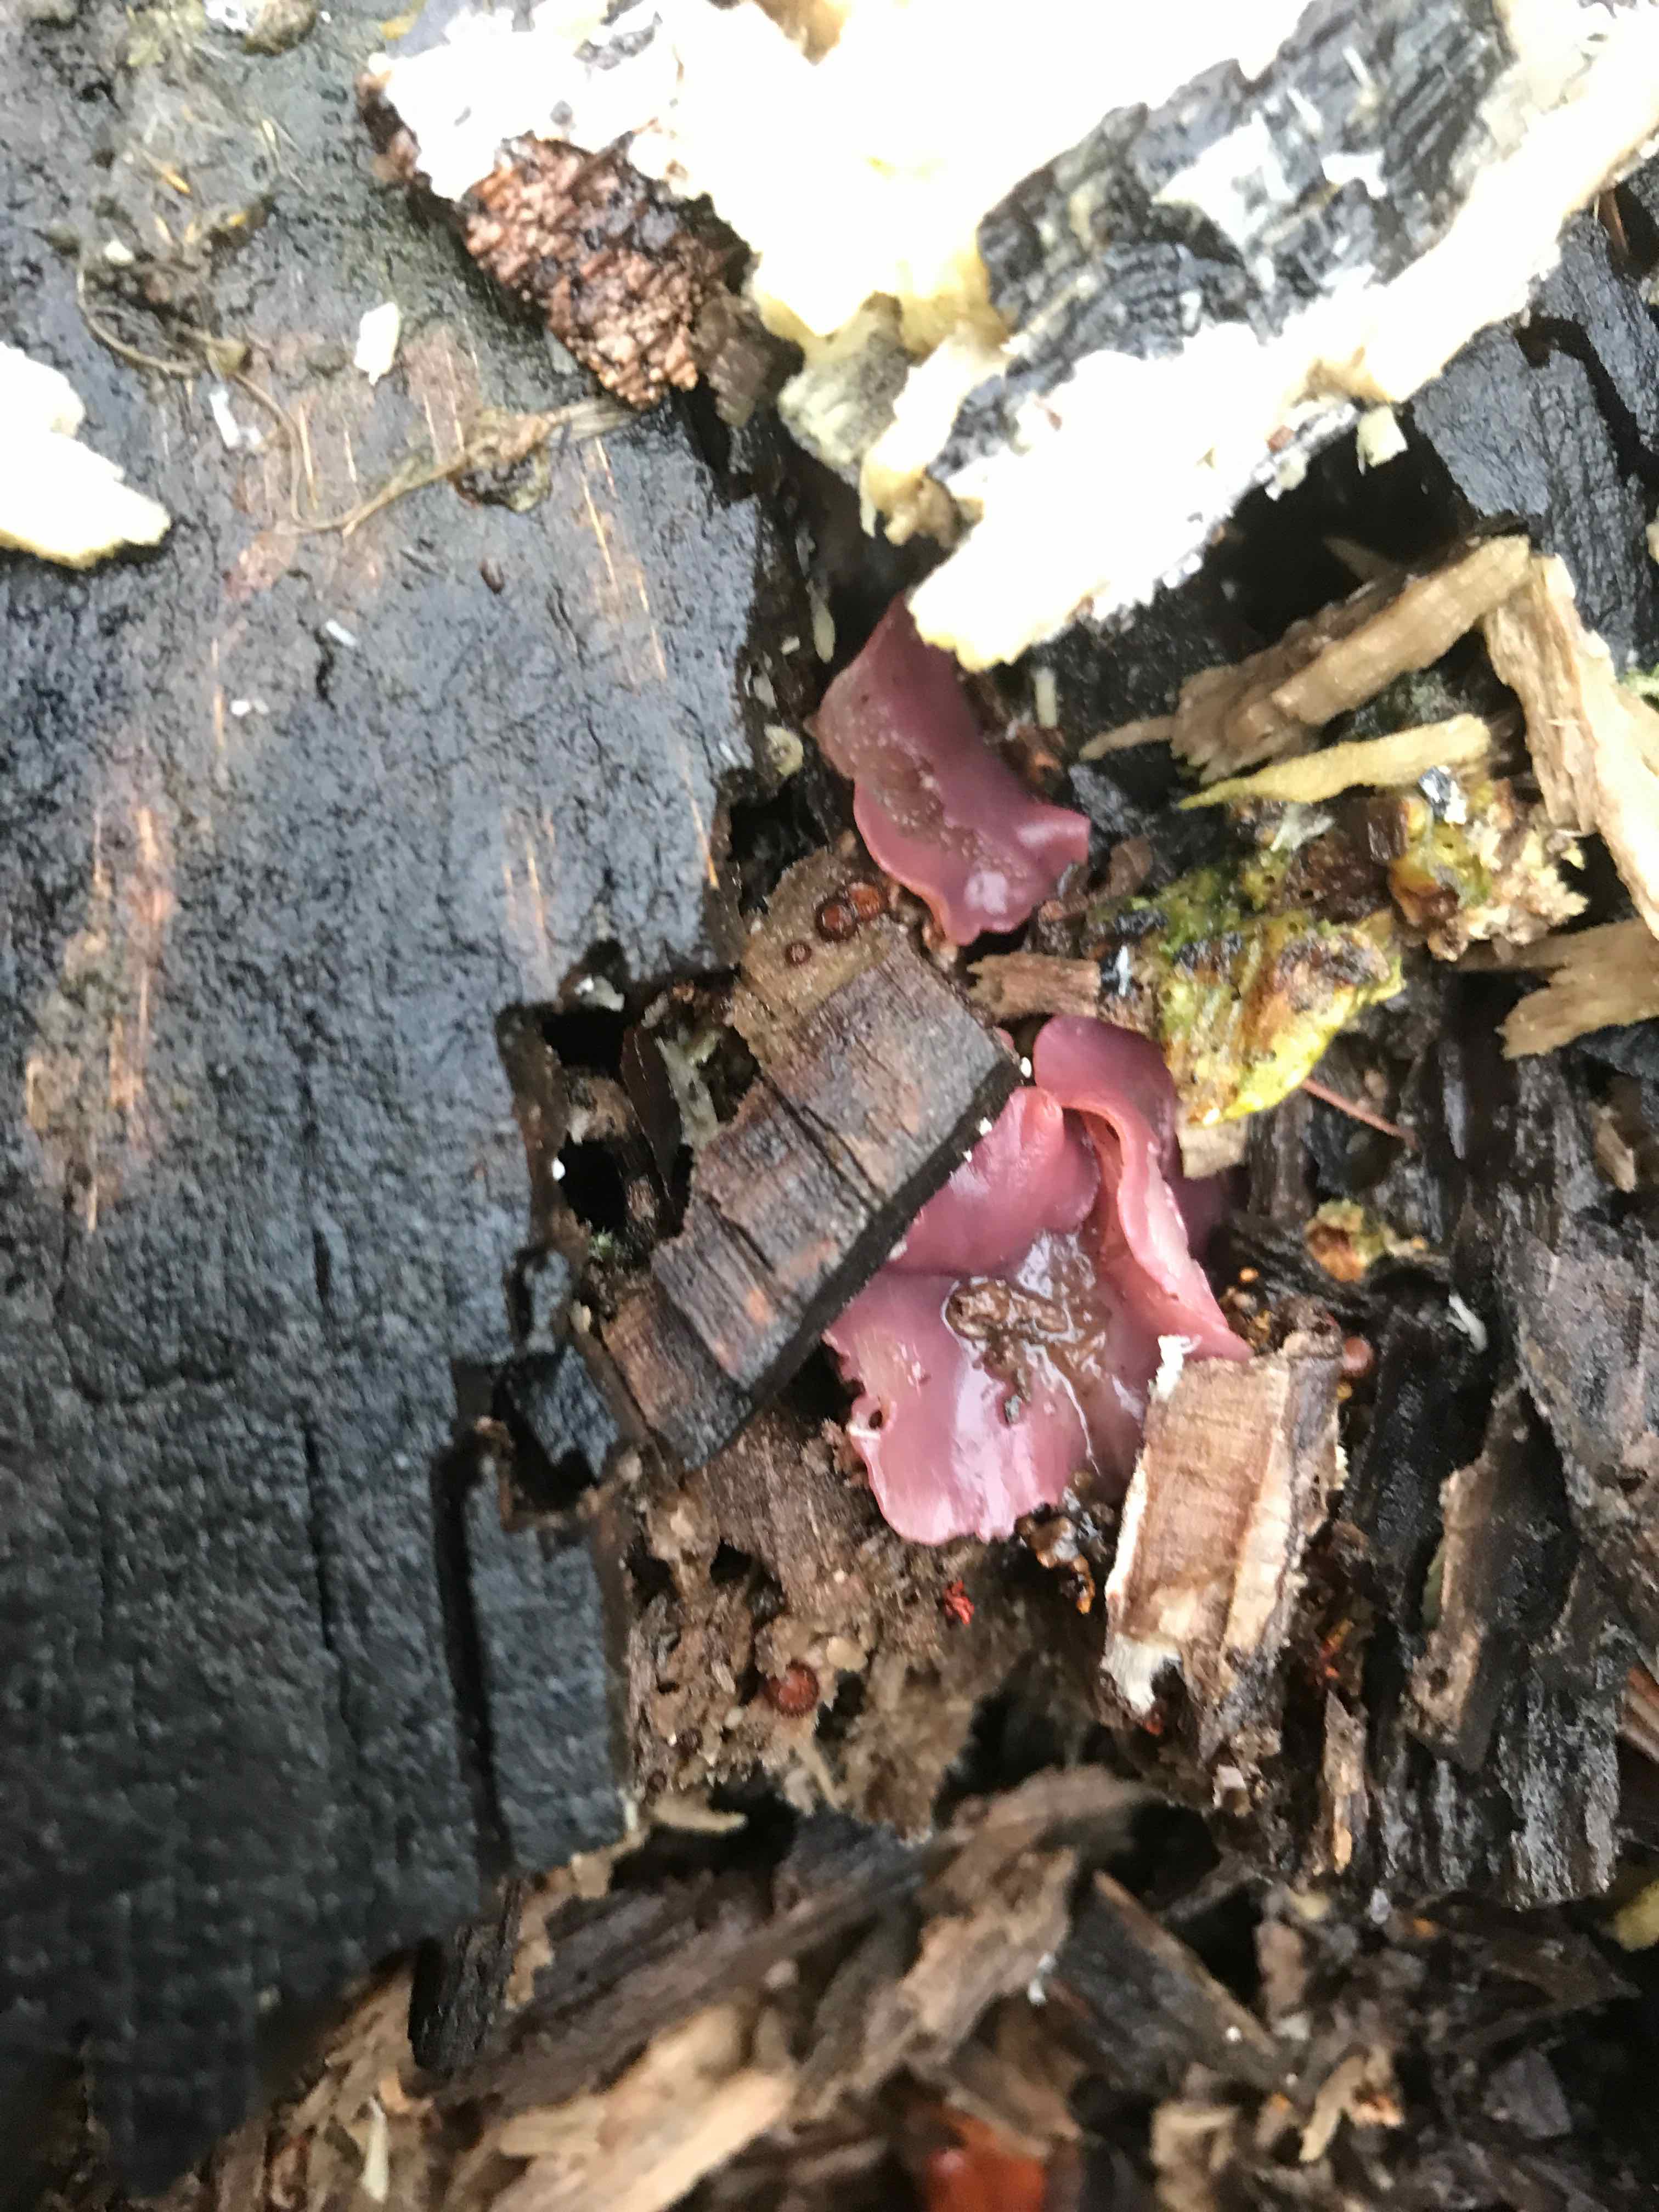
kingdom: Fungi
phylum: Ascomycota
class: Leotiomycetes
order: Helotiales
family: Gelatinodiscaceae
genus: Ascocoryne
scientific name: Ascocoryne cylichnium
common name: stor sejskive
